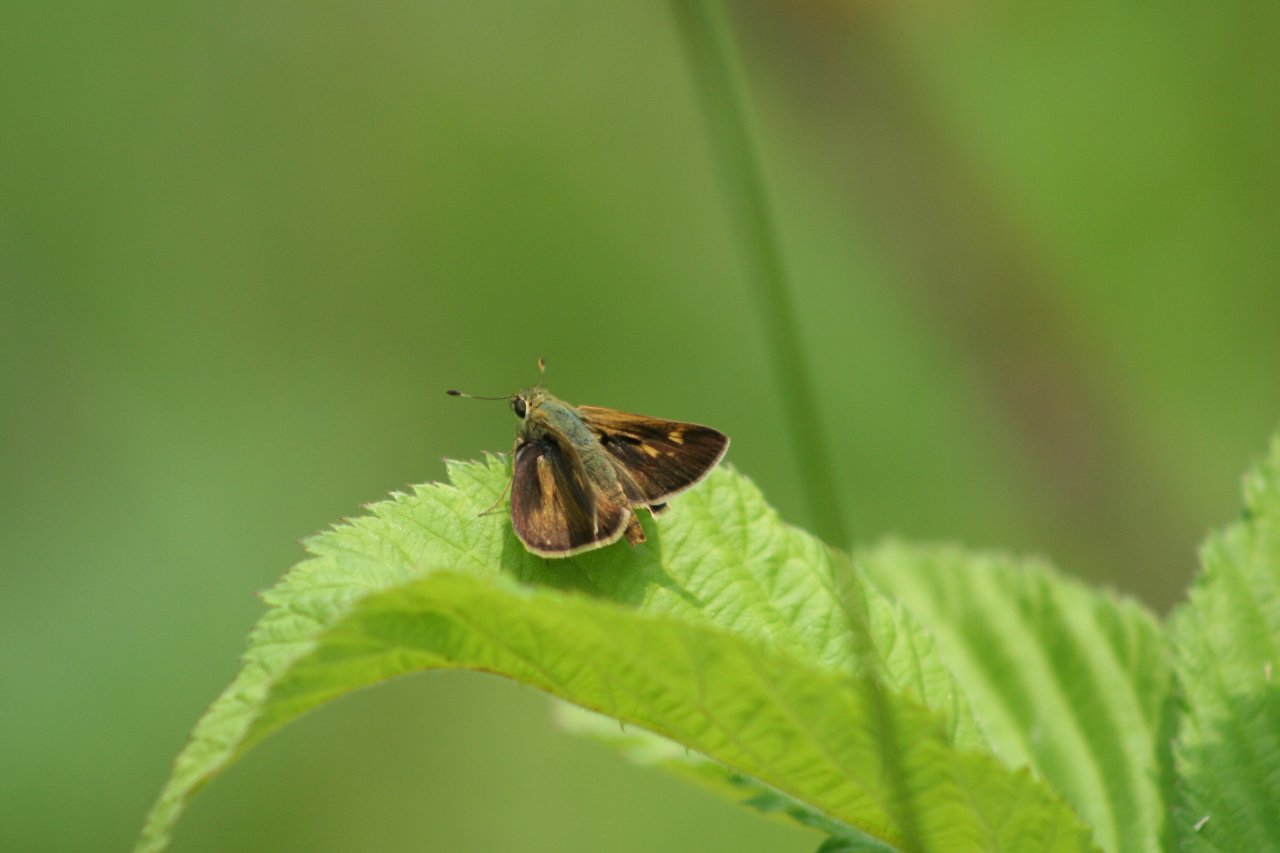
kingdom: Animalia
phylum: Arthropoda
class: Insecta
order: Lepidoptera
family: Hesperiidae
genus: Polites
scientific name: Polites egeremet
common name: Northern Broken-Dash
